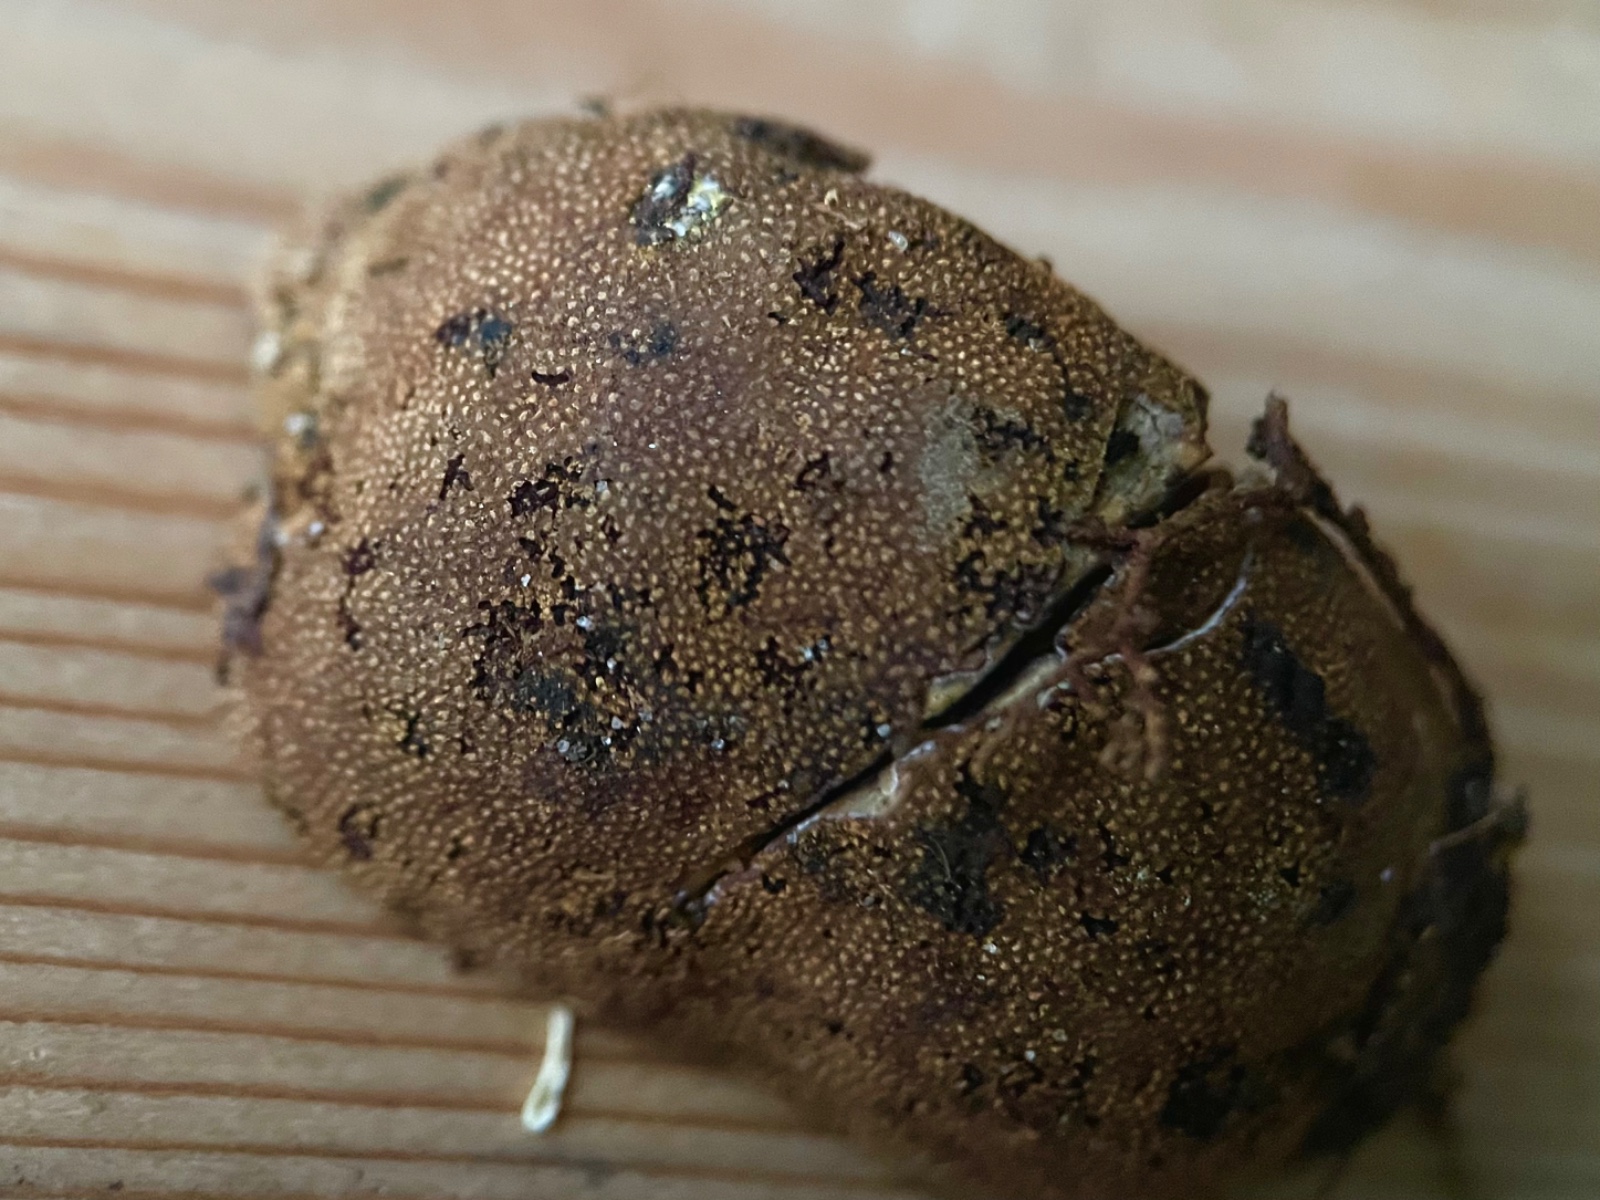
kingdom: Fungi
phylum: Ascomycota
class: Eurotiomycetes
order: Eurotiales
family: Elaphomycetaceae
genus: Elaphomyces
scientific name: Elaphomyces granulatus
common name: grynet hjortetrøffel
